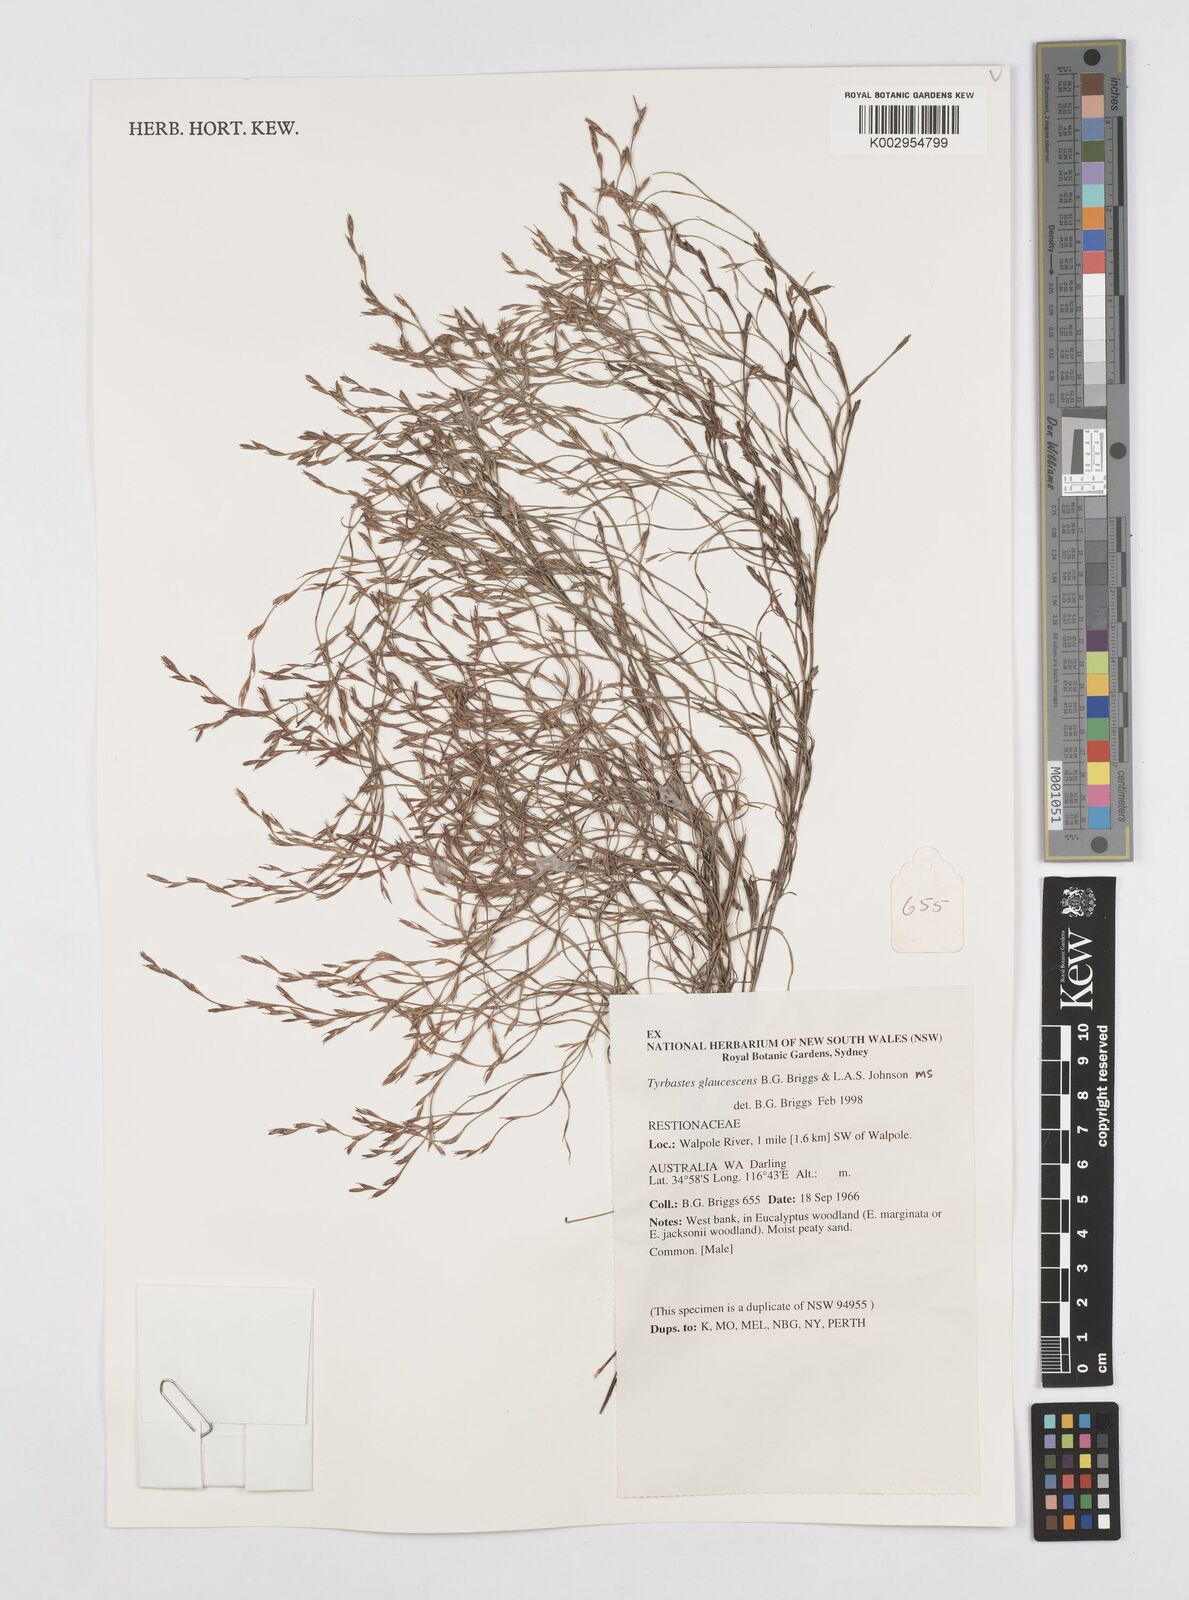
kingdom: Plantae
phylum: Tracheophyta
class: Liliopsida
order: Poales
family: Restionaceae
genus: Tyrbastes
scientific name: Tyrbastes glaucescens
